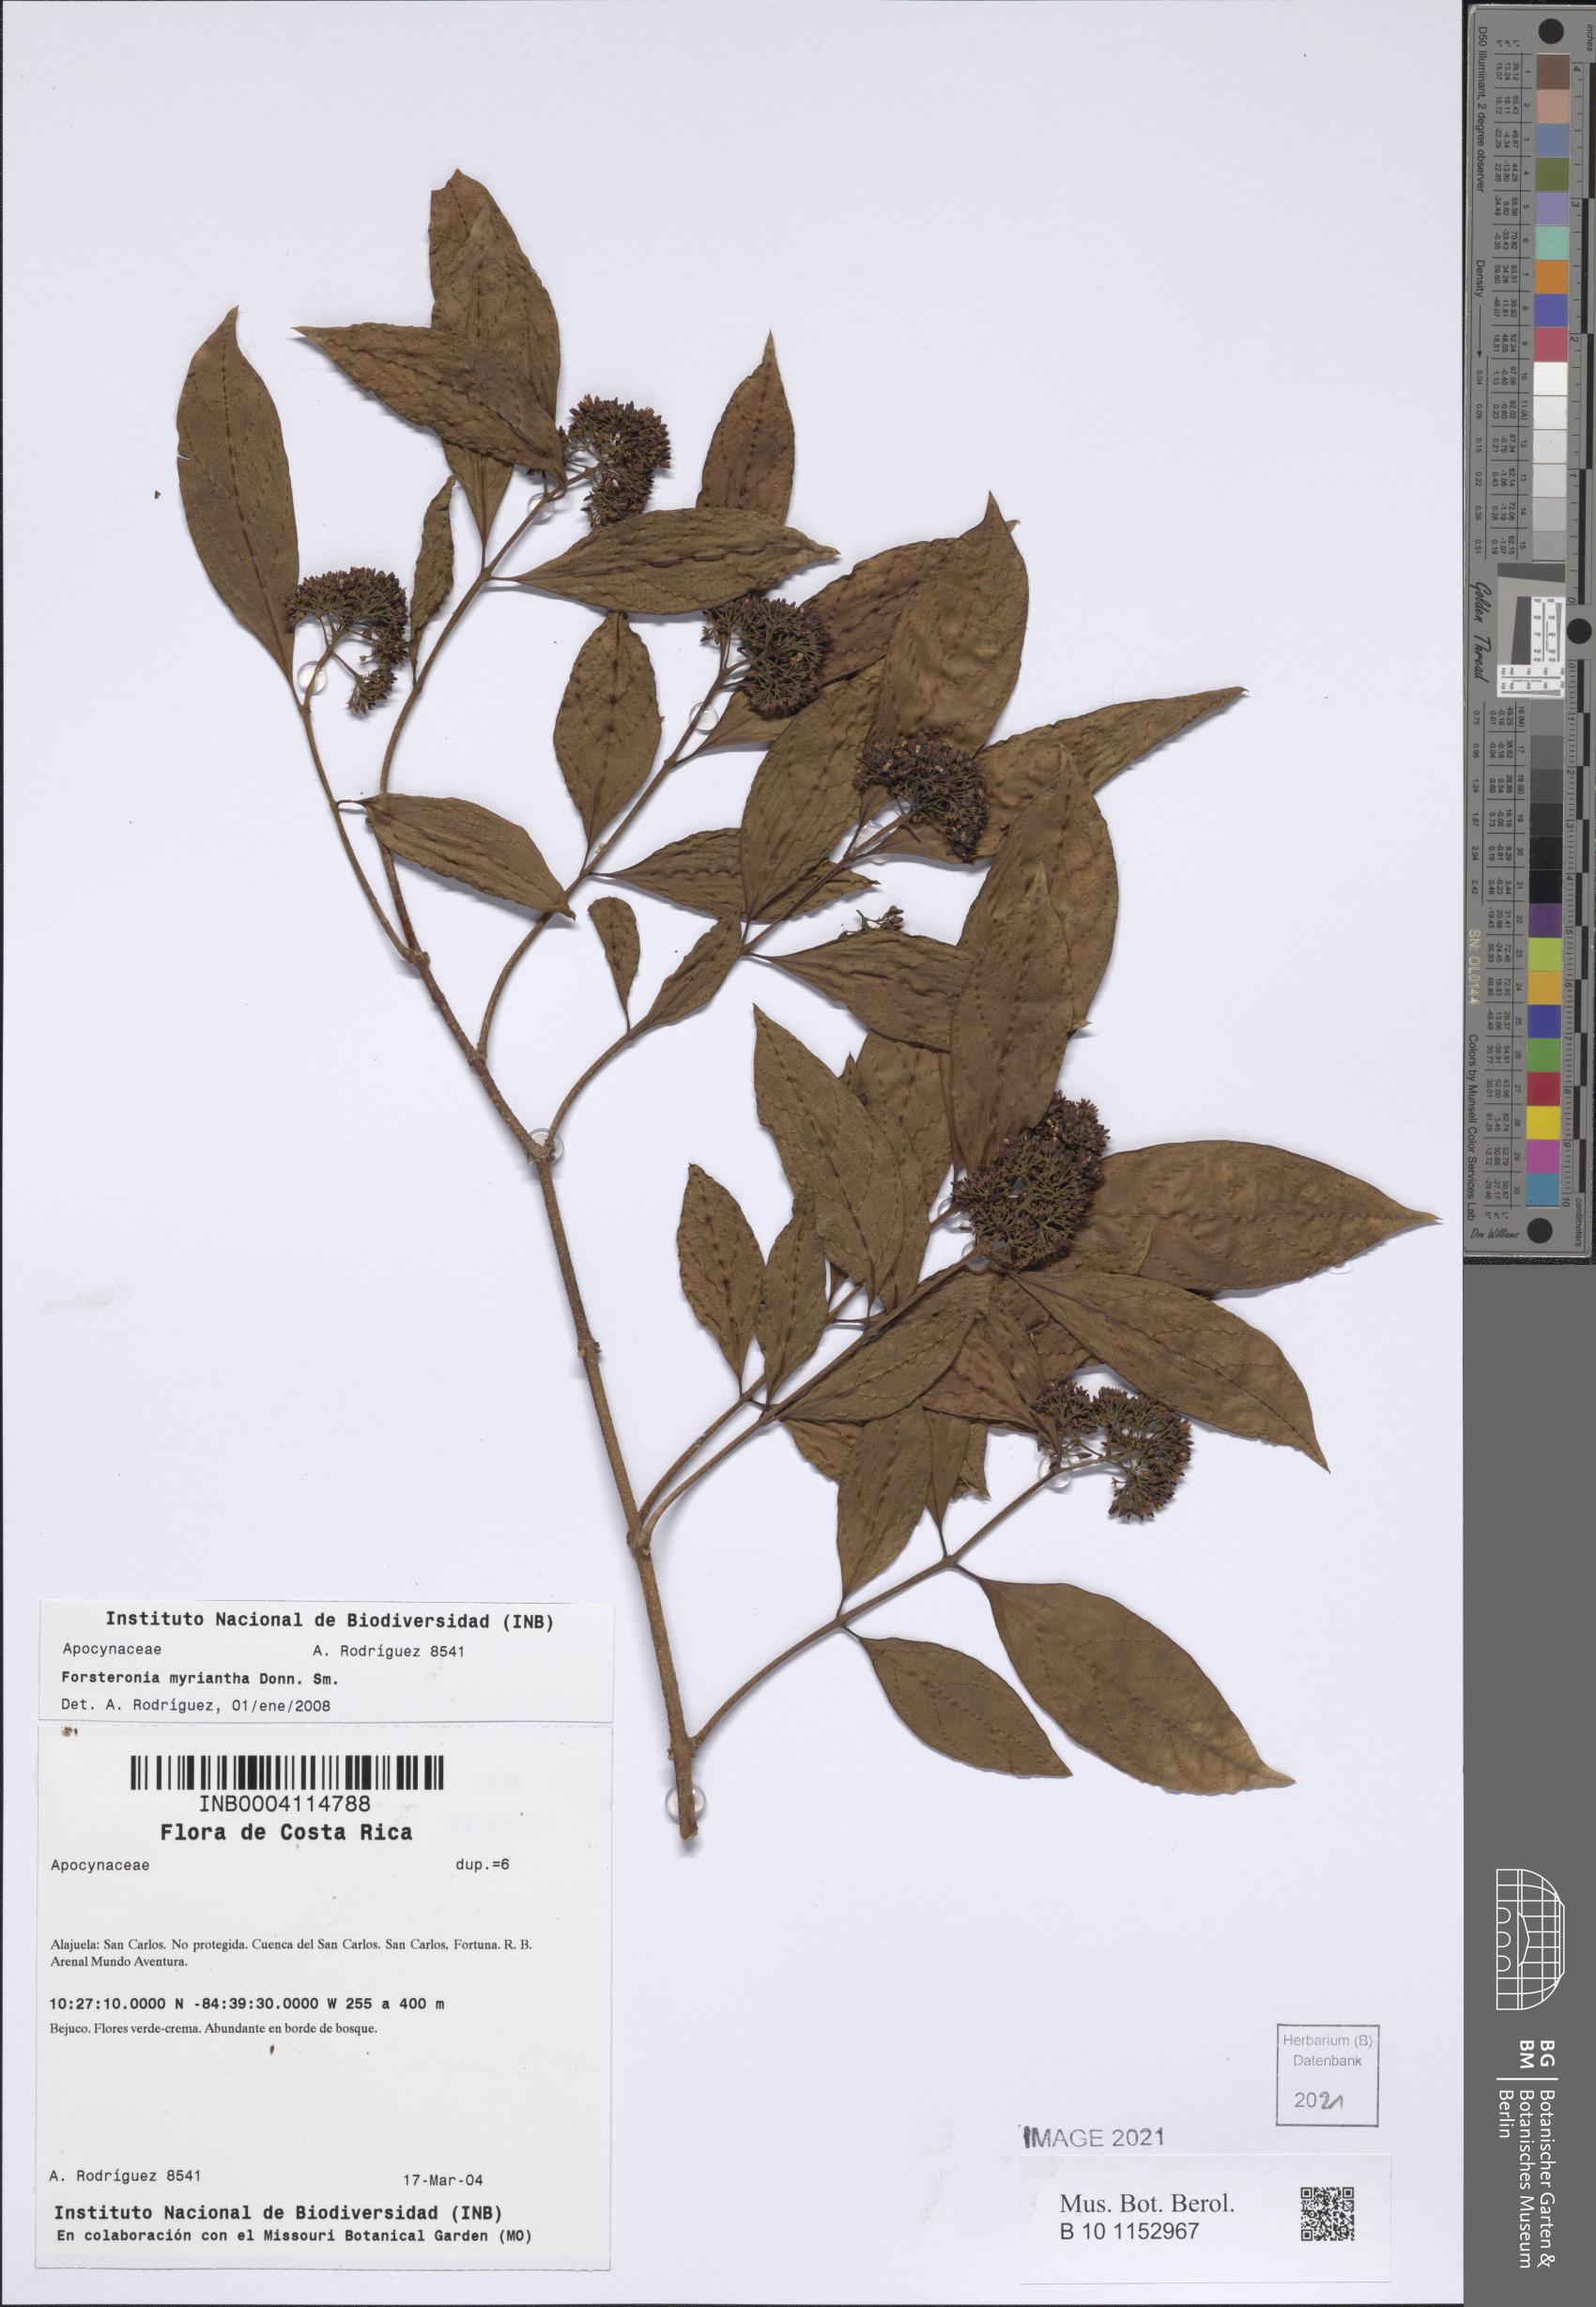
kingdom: Plantae
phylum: Tracheophyta
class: Magnoliopsida
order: Gentianales
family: Apocynaceae
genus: Forsteronia
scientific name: Forsteronia myriantha
